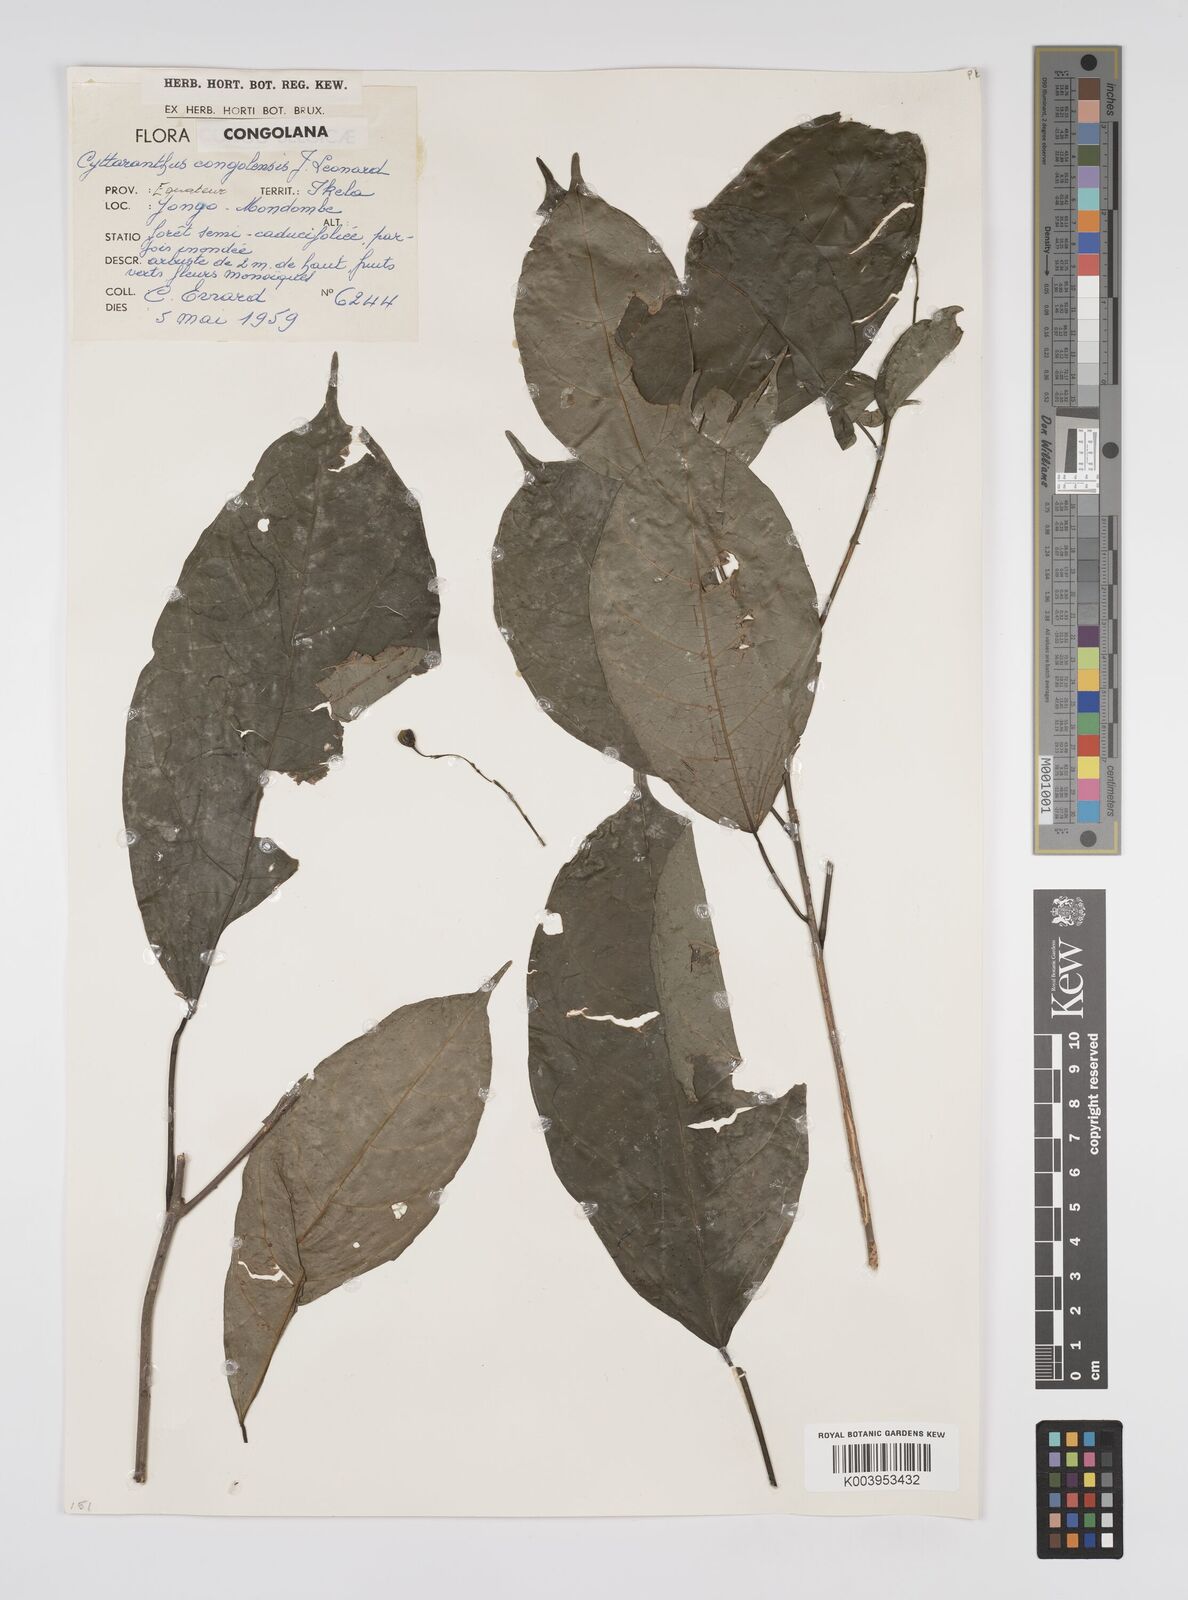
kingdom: Plantae
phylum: Tracheophyta
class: Magnoliopsida
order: Malpighiales
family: Euphorbiaceae
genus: Cyttaranthus
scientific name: Cyttaranthus congolensis
